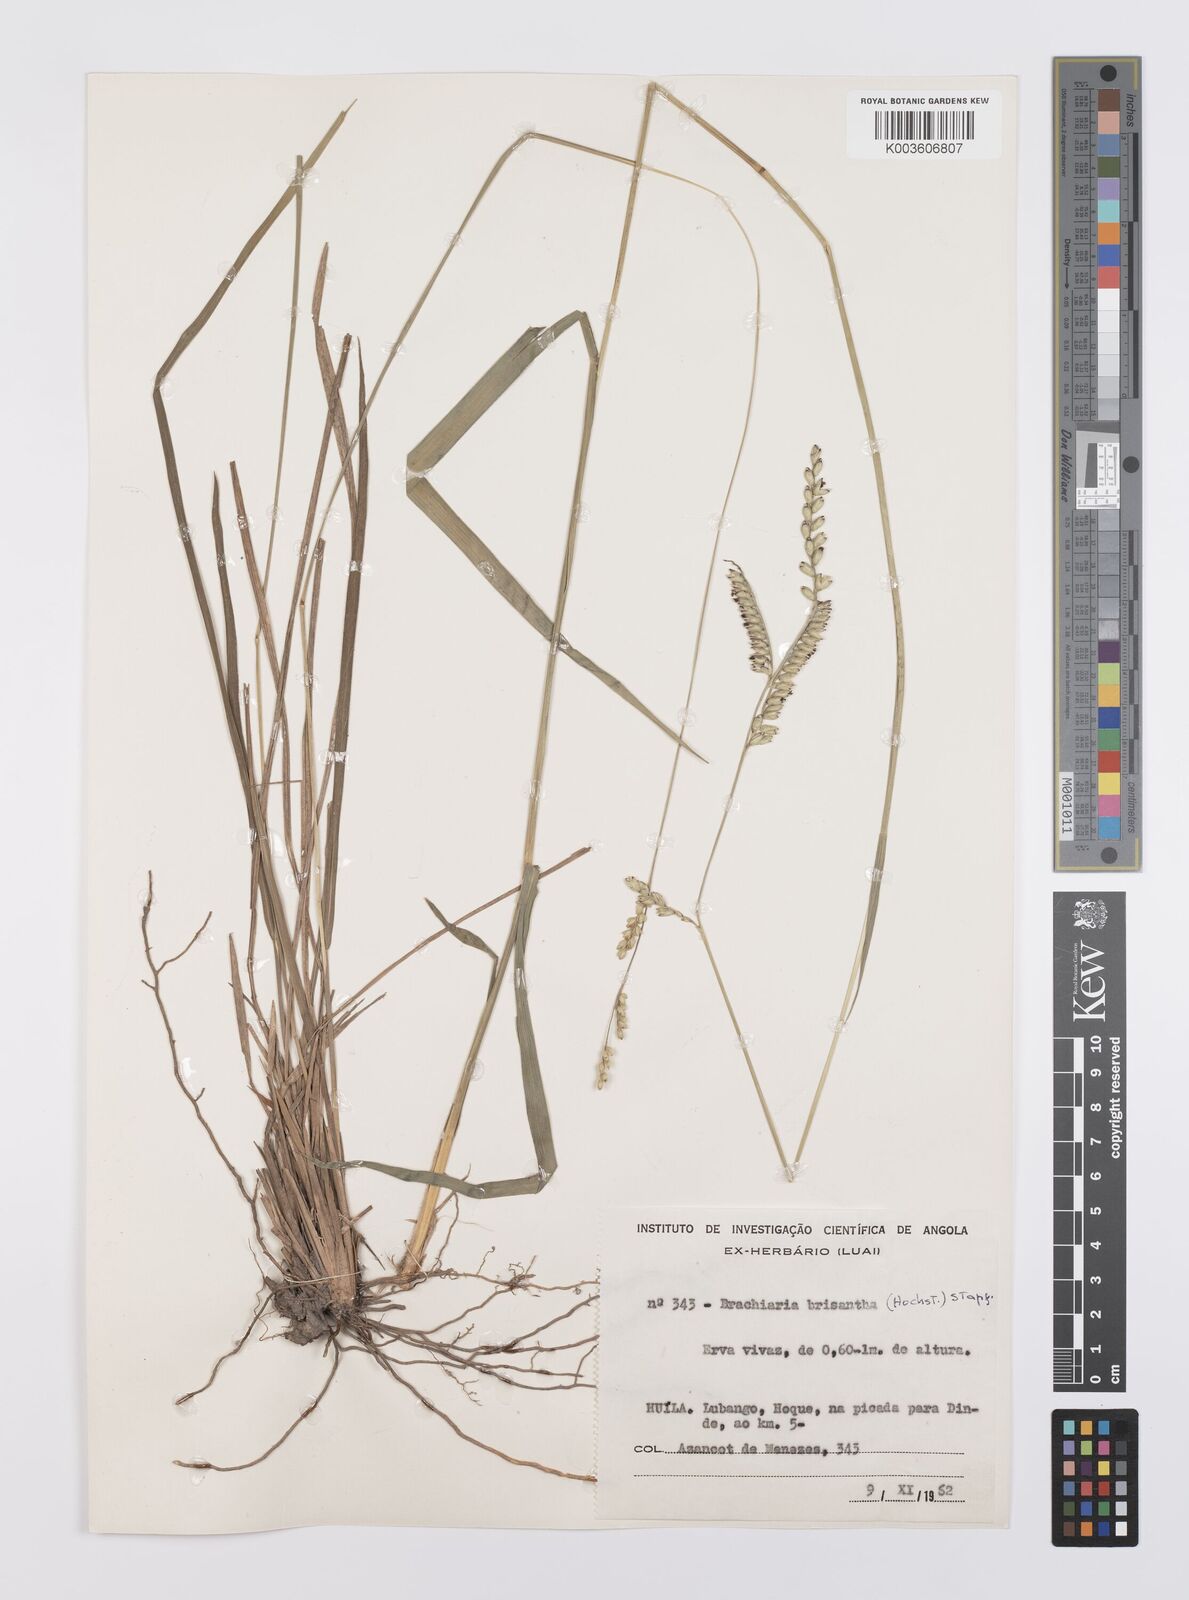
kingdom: Plantae
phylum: Tracheophyta
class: Liliopsida
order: Poales
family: Poaceae
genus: Urochloa
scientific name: Urochloa brizantha
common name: Palisade signalgrass
